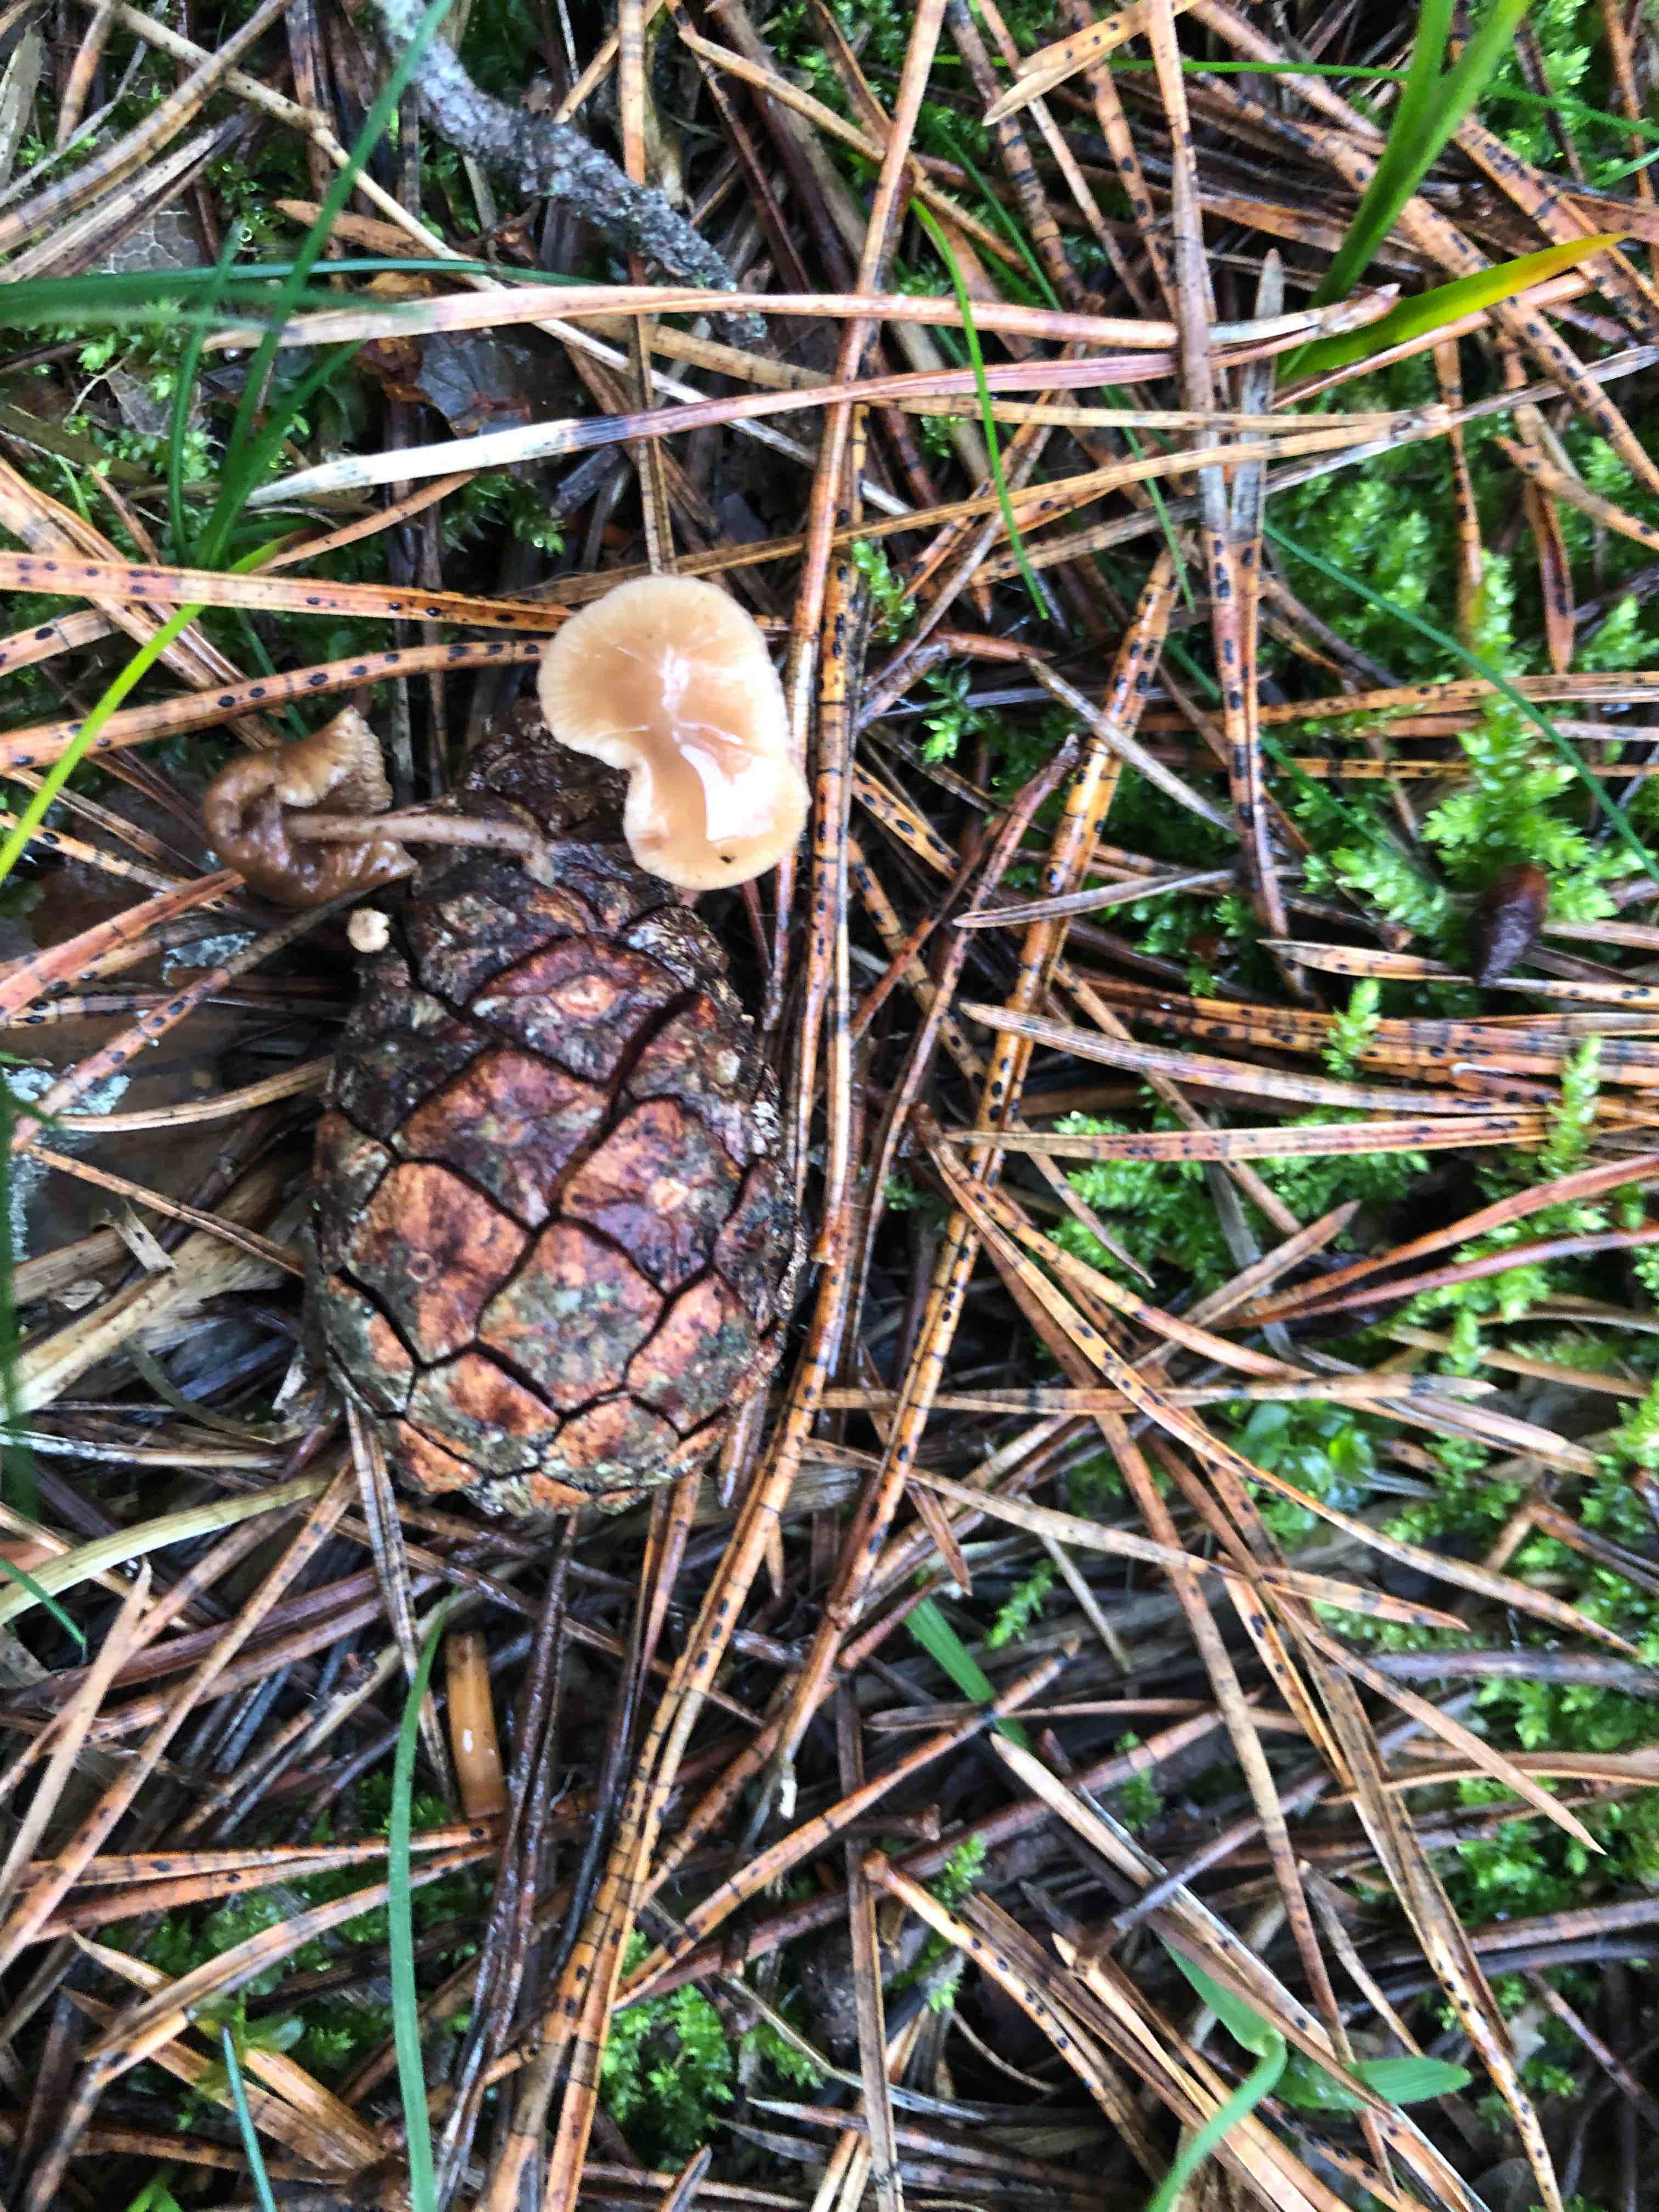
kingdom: Fungi
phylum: Basidiomycota
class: Agaricomycetes
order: Agaricales
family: Marasmiaceae
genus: Baeospora
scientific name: Baeospora myosura
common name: koglebruskhat
